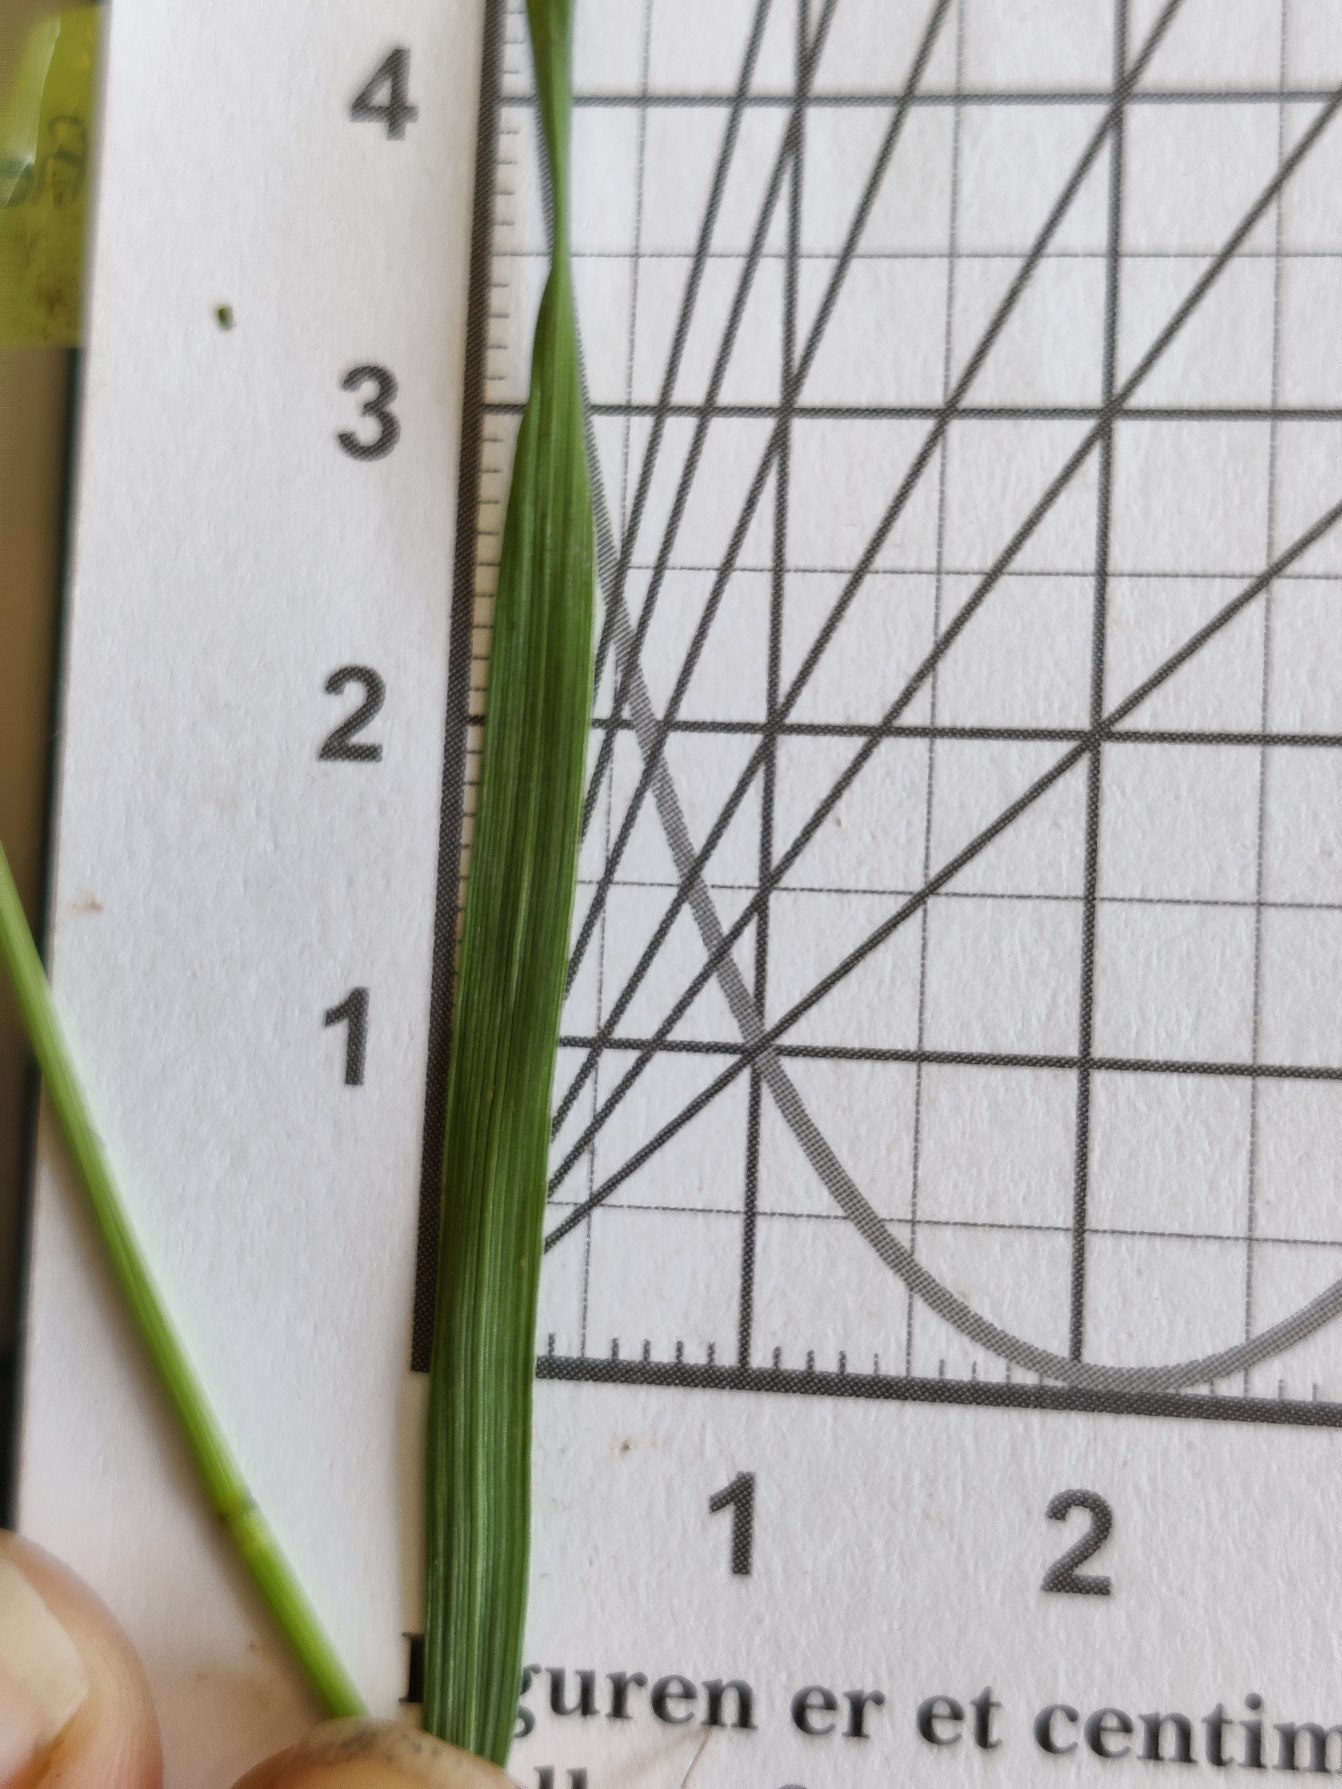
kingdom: Plantae
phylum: Tracheophyta
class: Liliopsida
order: Poales
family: Poaceae
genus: Agrostis
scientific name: Agrostis gigantea
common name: Stortoppet hvene
